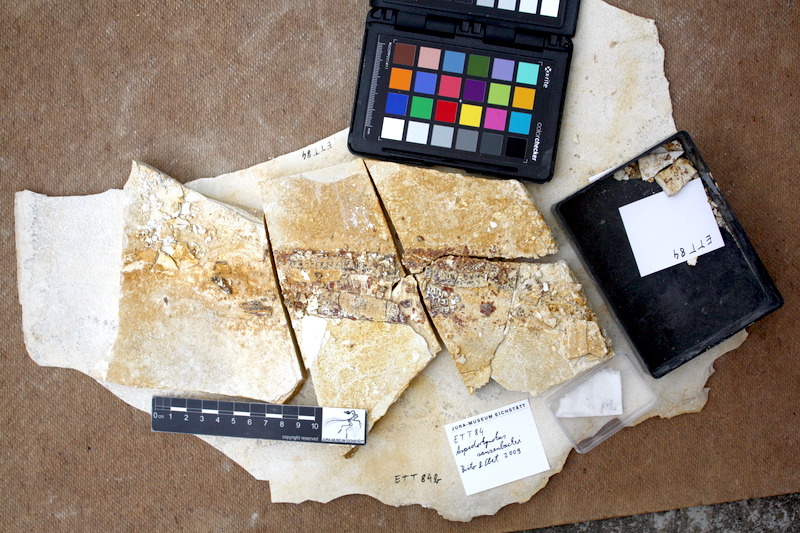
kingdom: Animalia
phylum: Chordata
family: Aspidorhynchidae
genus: Aspidorhynchus
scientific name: Aspidorhynchus sanzenbacheri
